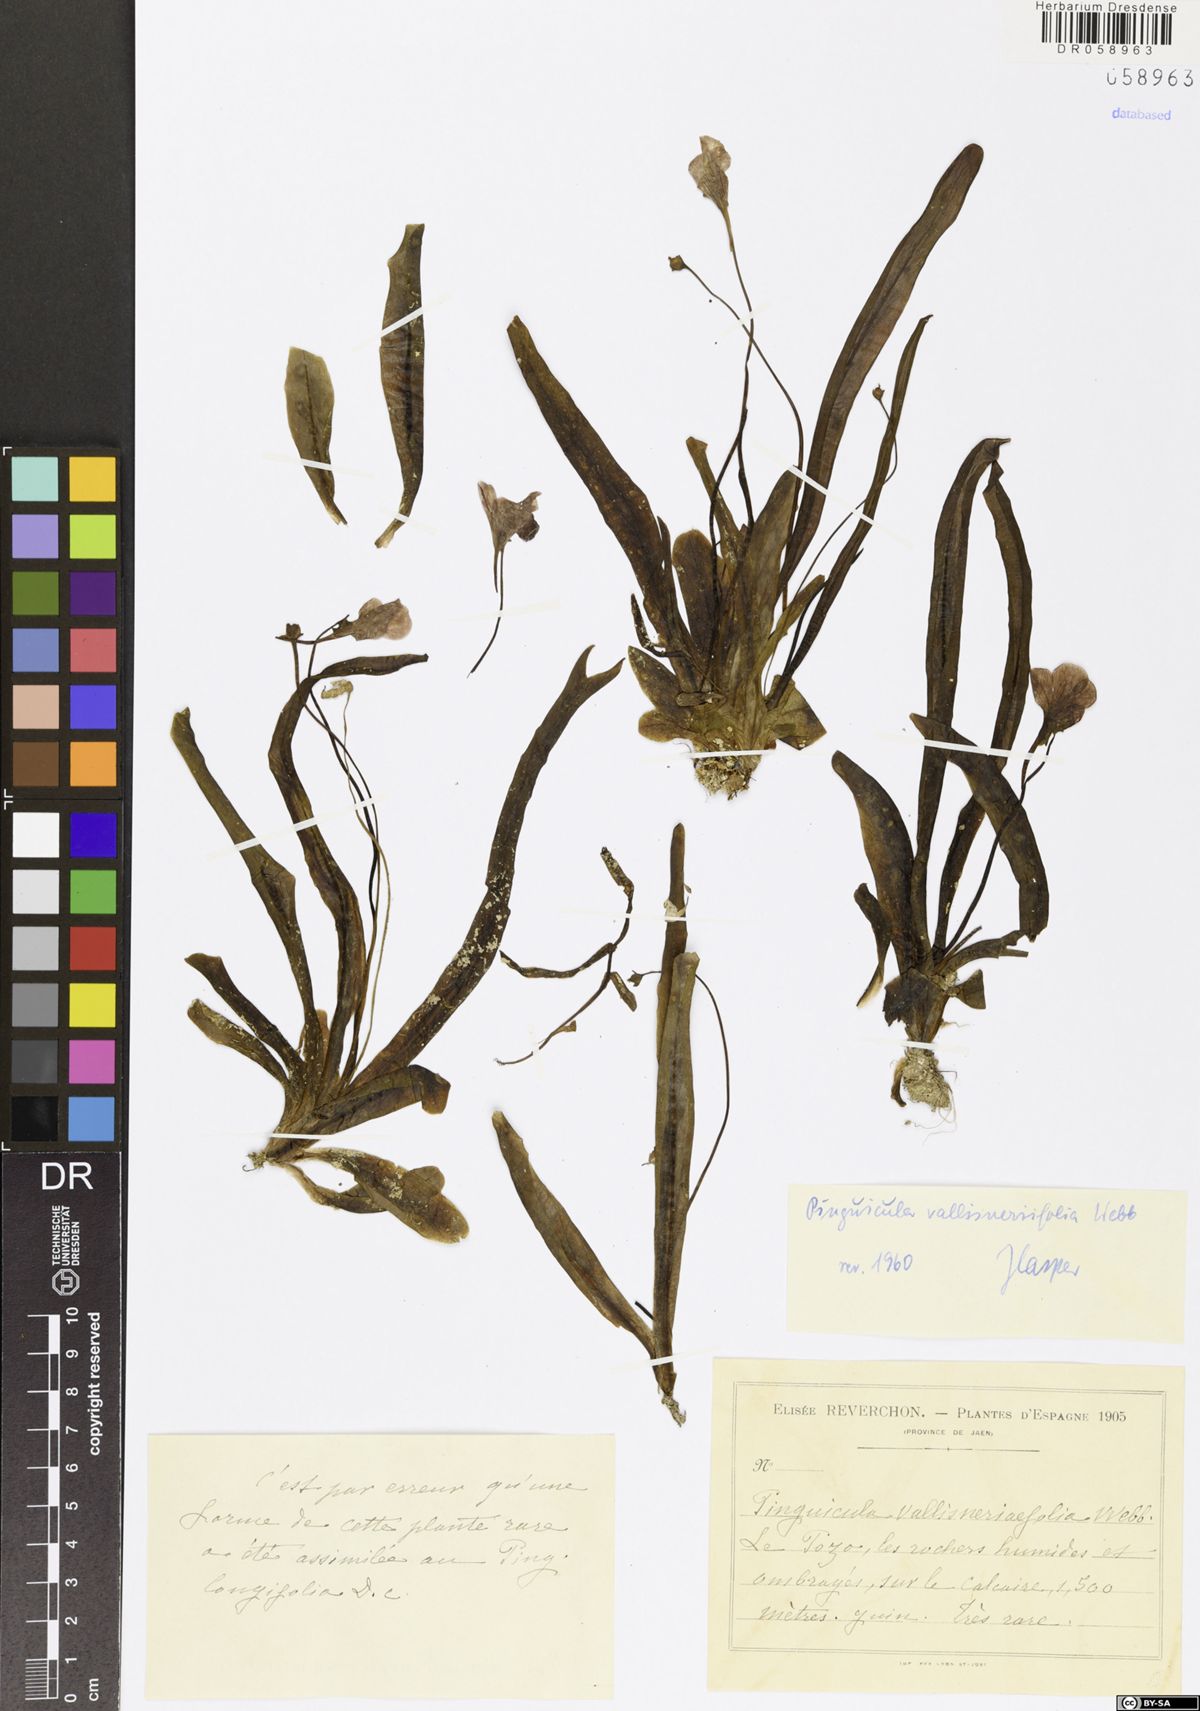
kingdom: Plantae
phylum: Tracheophyta
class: Magnoliopsida
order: Lamiales
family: Lentibulariaceae
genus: Pinguicula
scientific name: Pinguicula vallisneriifolia
